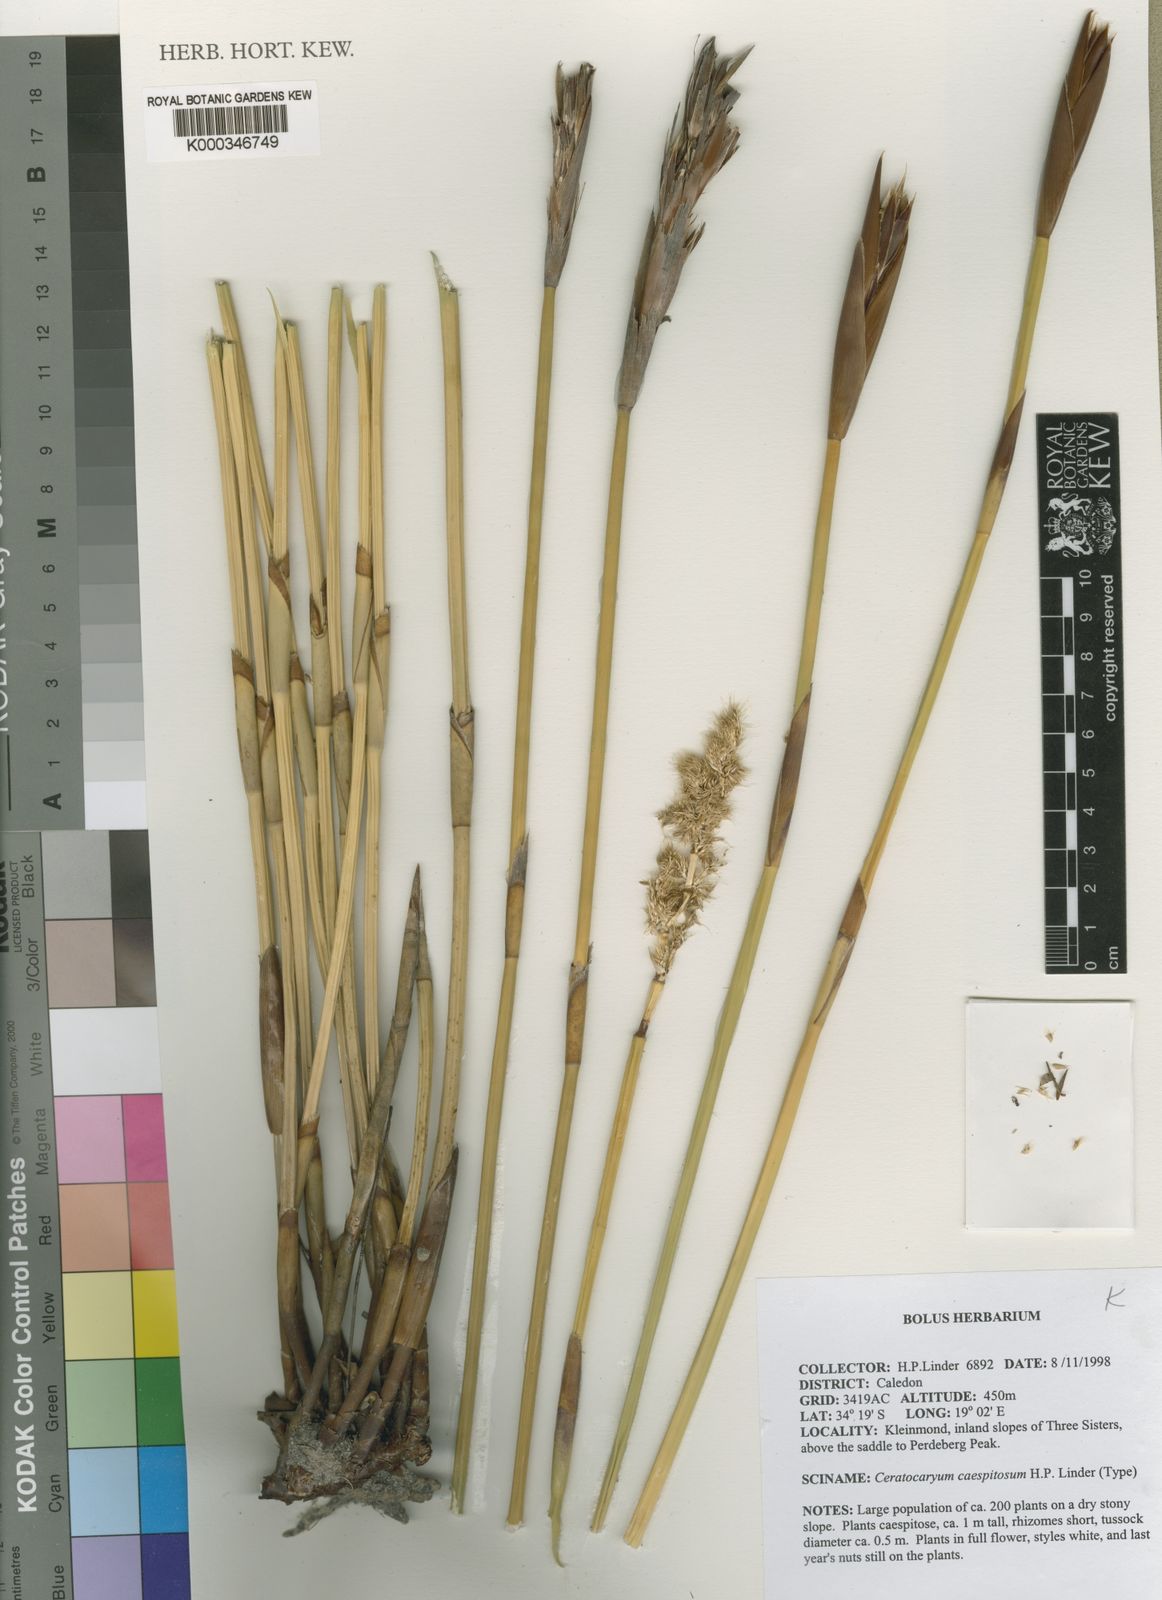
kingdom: Plantae
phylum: Tracheophyta
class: Liliopsida
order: Poales
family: Restionaceae
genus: Ceratocaryum
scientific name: Ceratocaryum caespitosum
